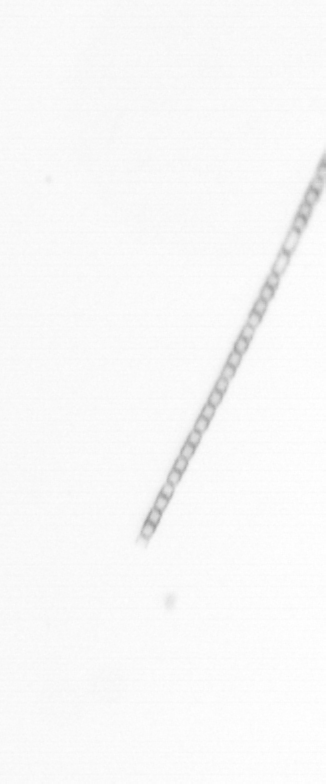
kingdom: Chromista
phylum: Ochrophyta
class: Bacillariophyceae
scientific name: Bacillariophyceae
